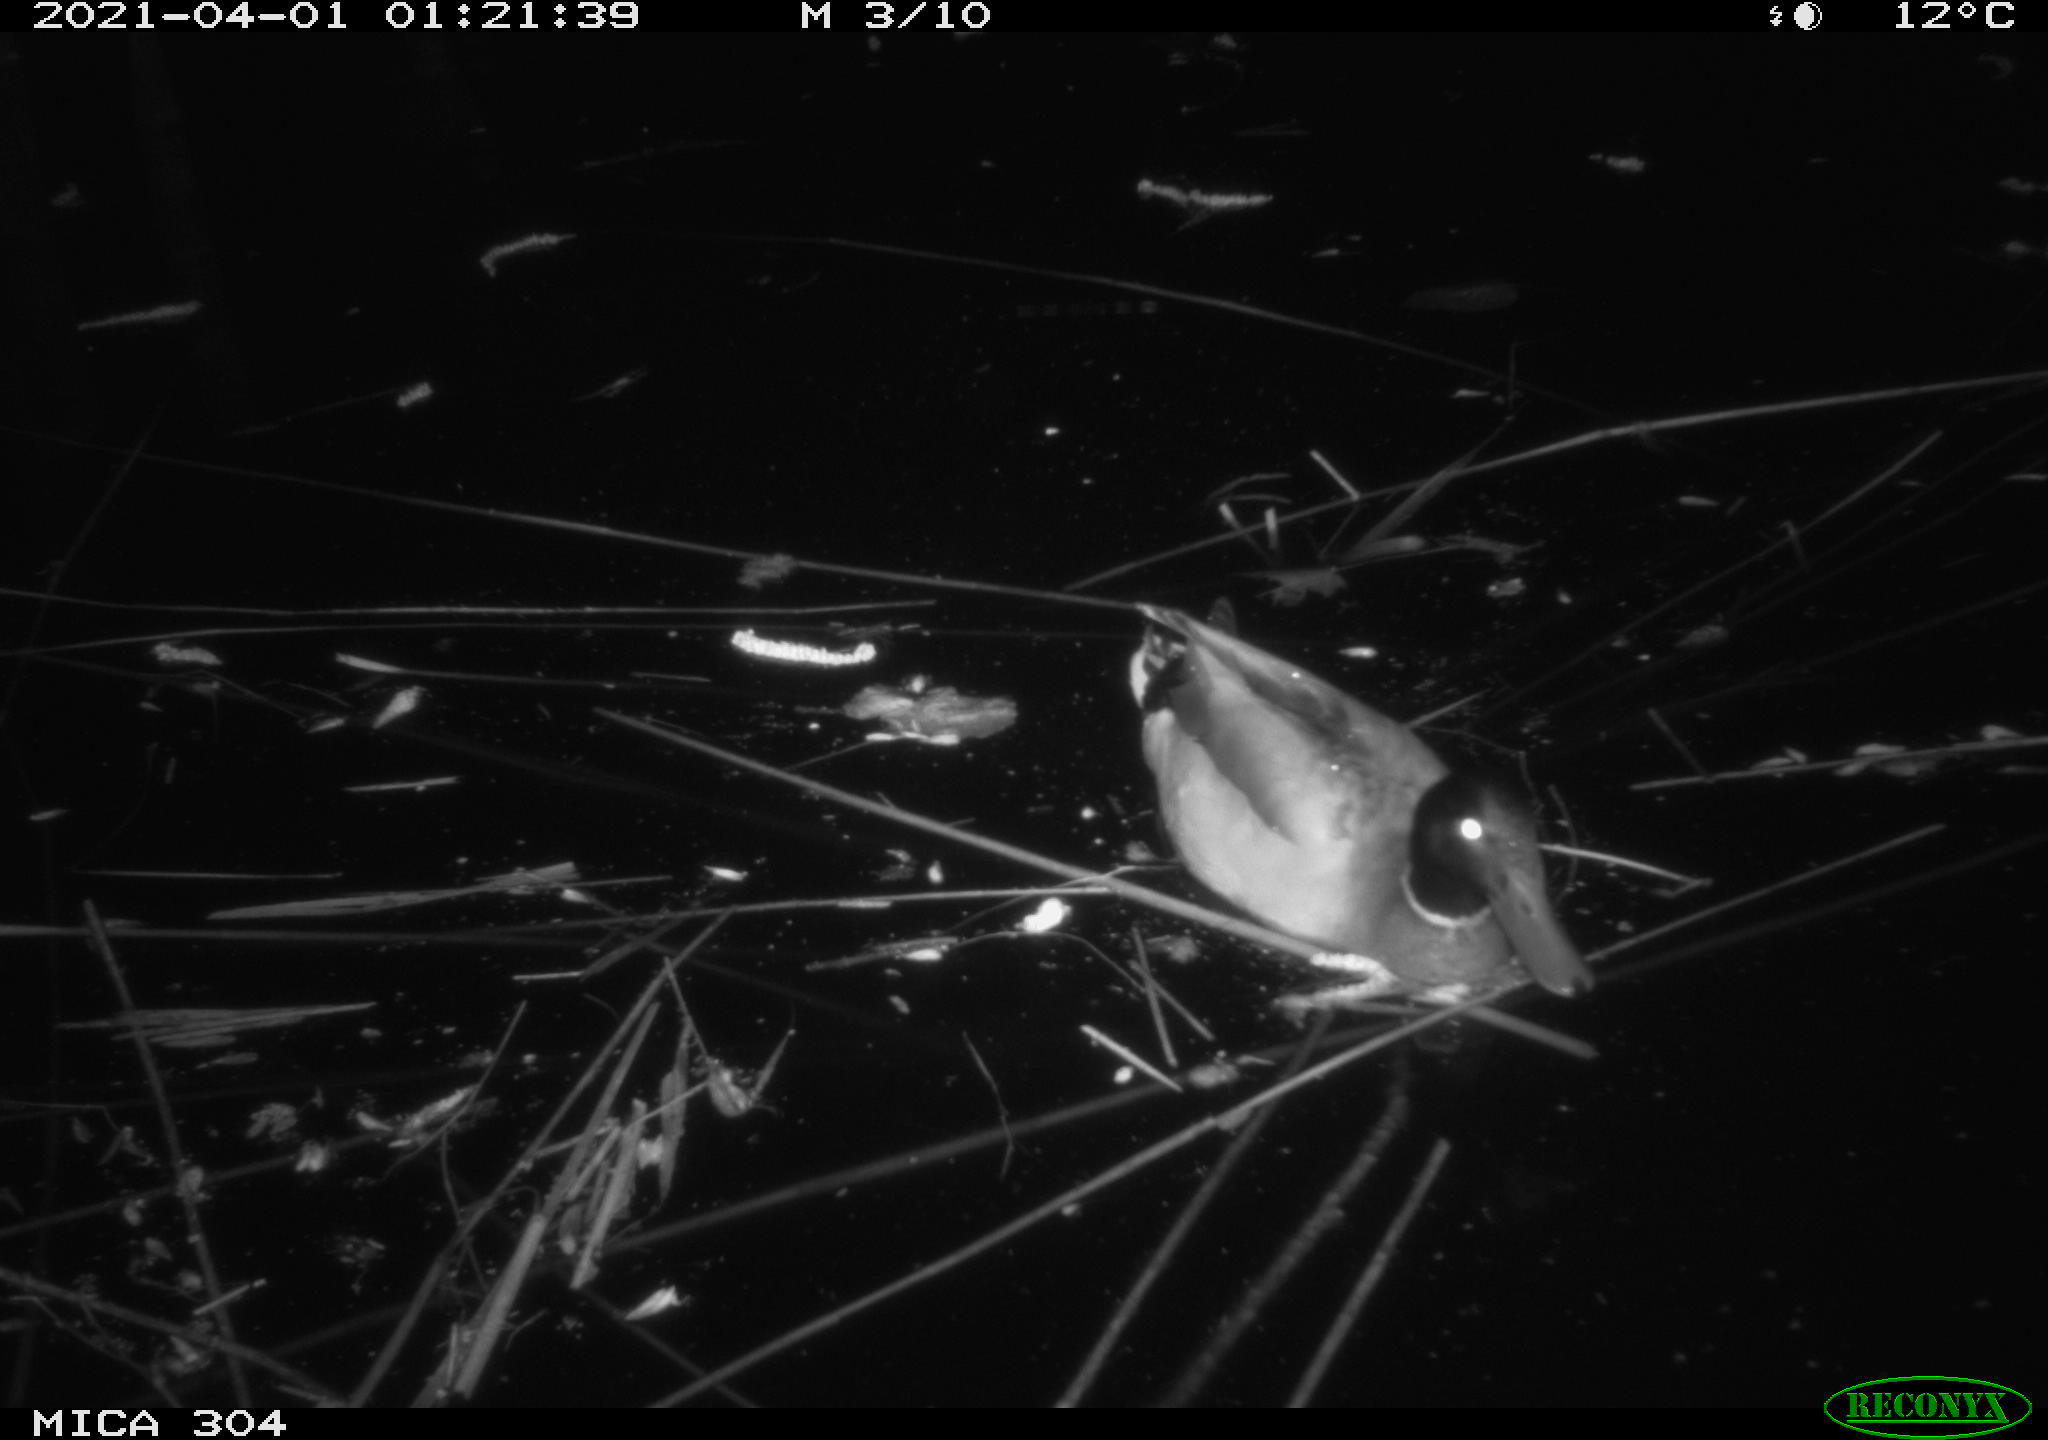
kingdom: Animalia
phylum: Chordata
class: Aves
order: Anseriformes
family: Anatidae
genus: Anas
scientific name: Anas platyrhynchos
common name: Mallard
